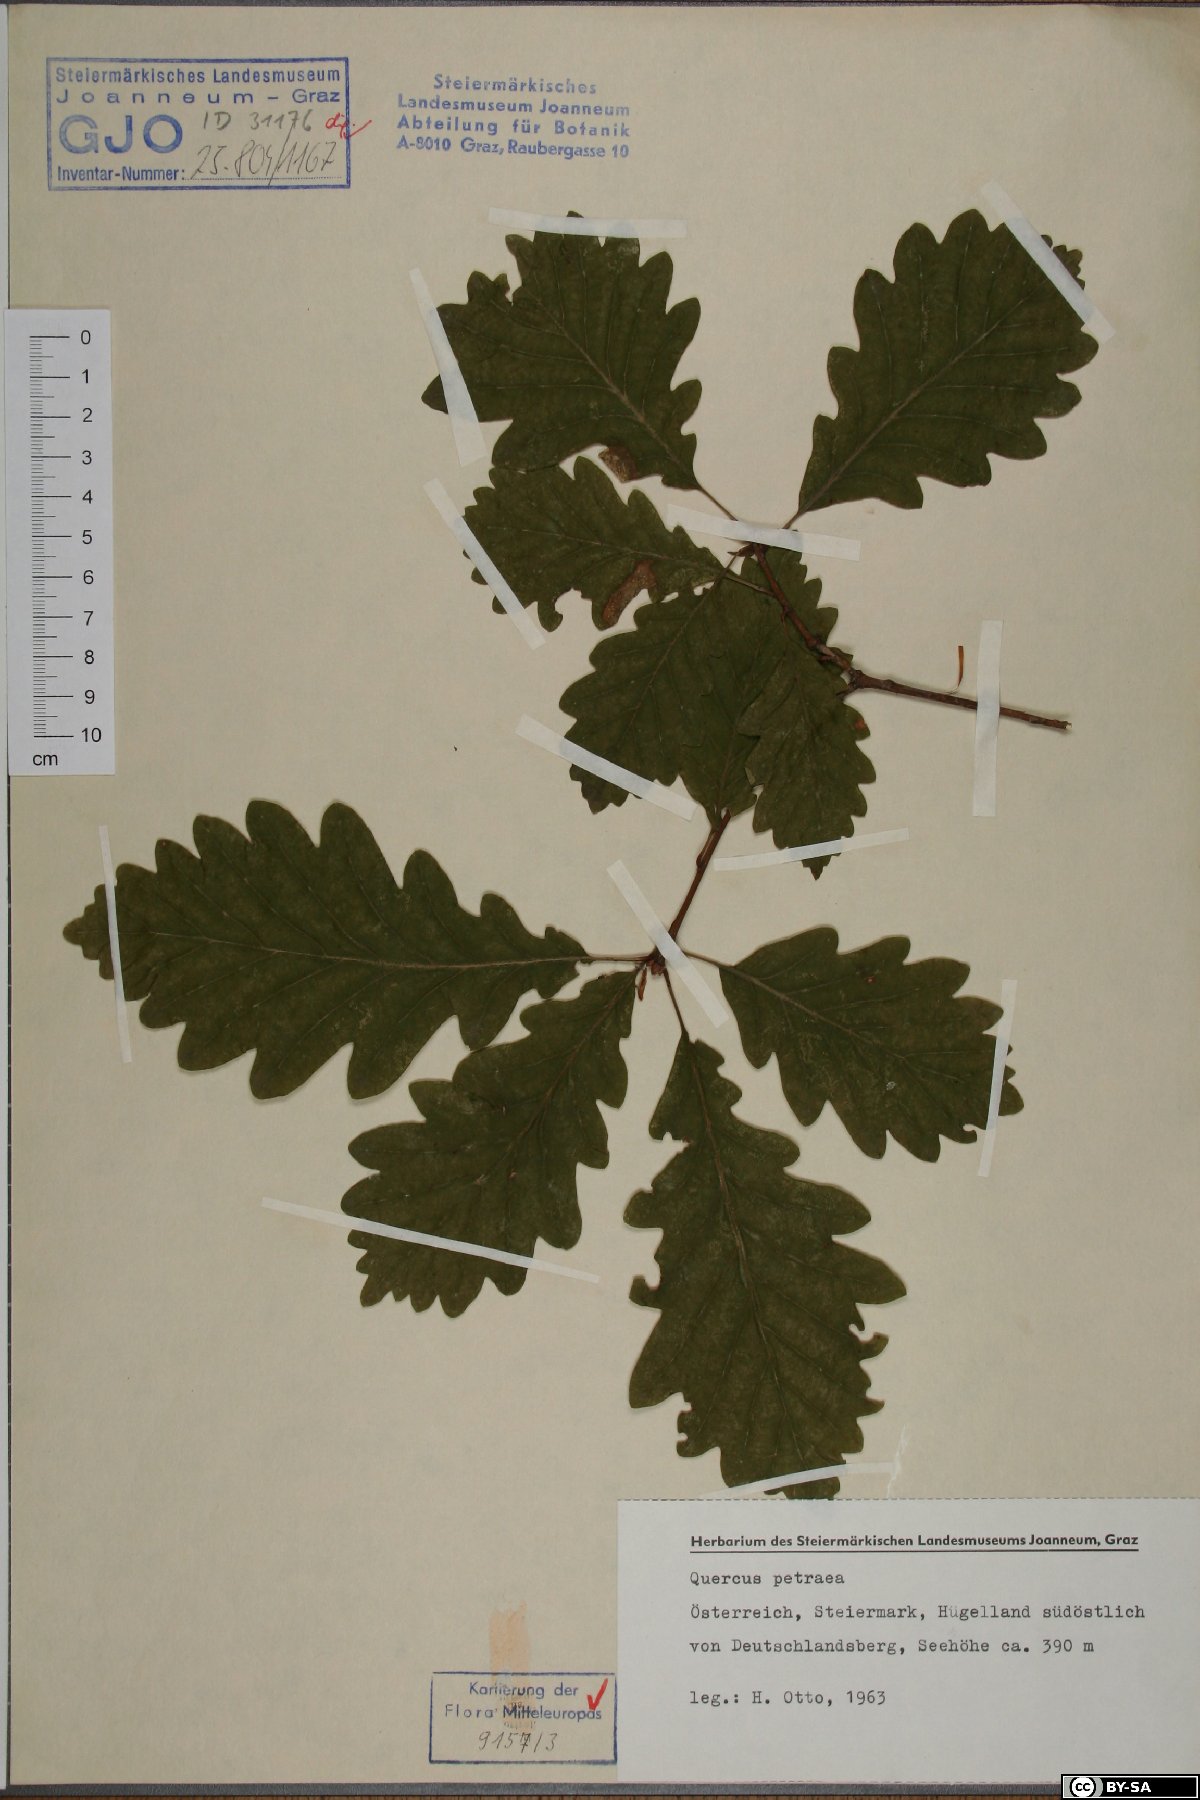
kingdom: Plantae
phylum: Tracheophyta
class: Magnoliopsida
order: Fagales
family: Fagaceae
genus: Quercus
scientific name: Quercus petraea
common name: Sessile oak
